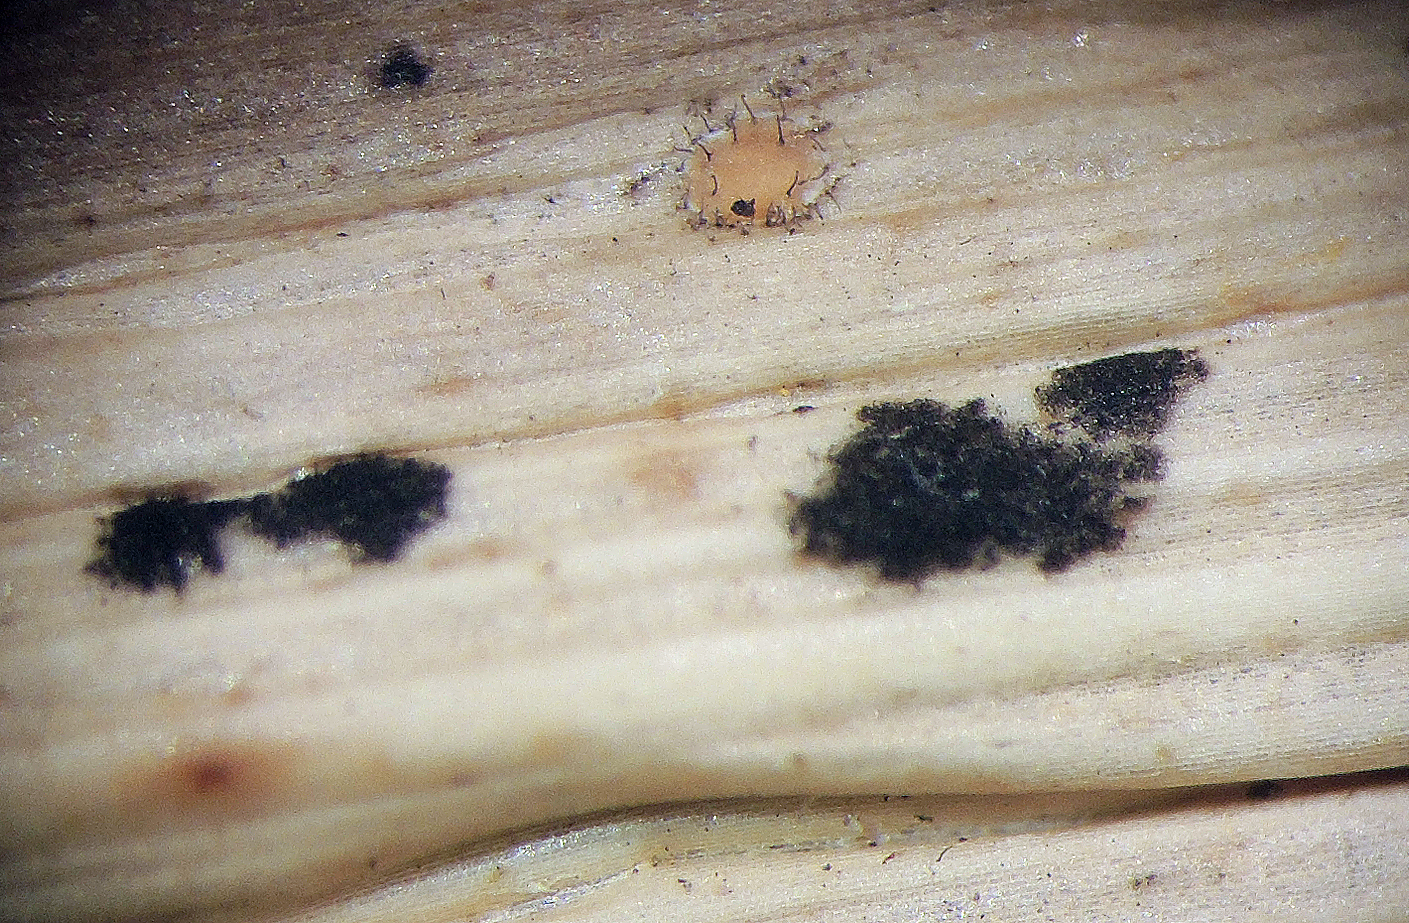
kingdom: Fungi
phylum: Ascomycota
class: Sordariomycetes
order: Xylariales
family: Apiosporaceae
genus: Arthrinium
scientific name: Arthrinium sporophleum
